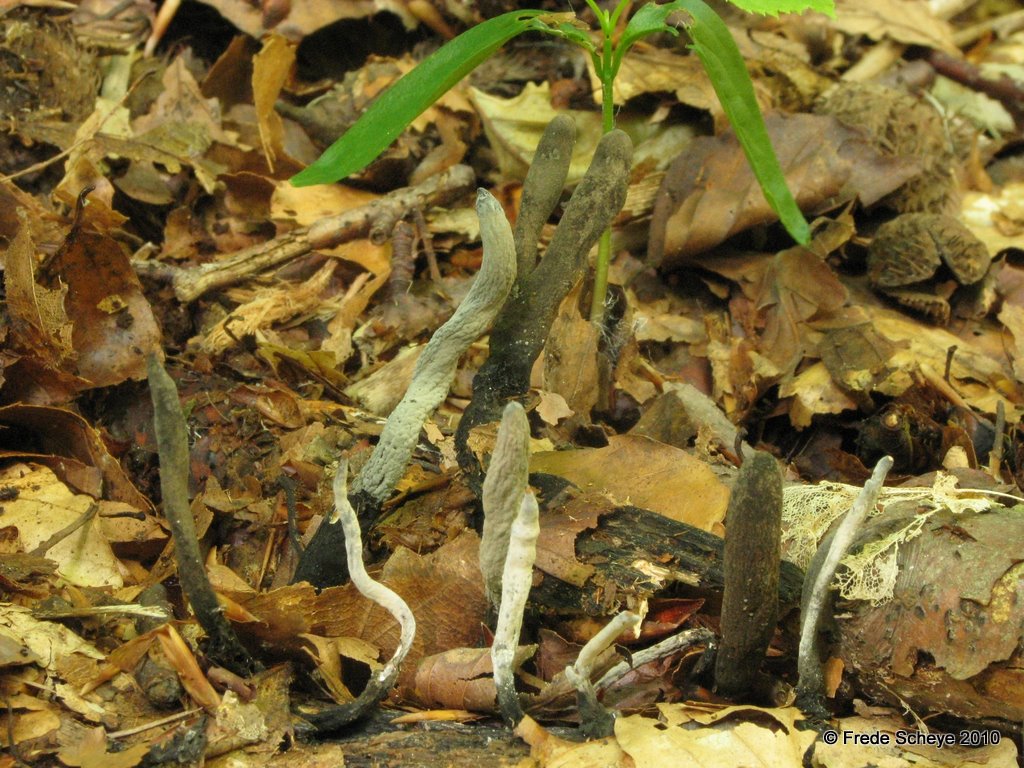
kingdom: Fungi
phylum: Ascomycota
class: Sordariomycetes
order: Xylariales
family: Xylariaceae
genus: Xylaria
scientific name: Xylaria longipes
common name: slank stødsvamp
